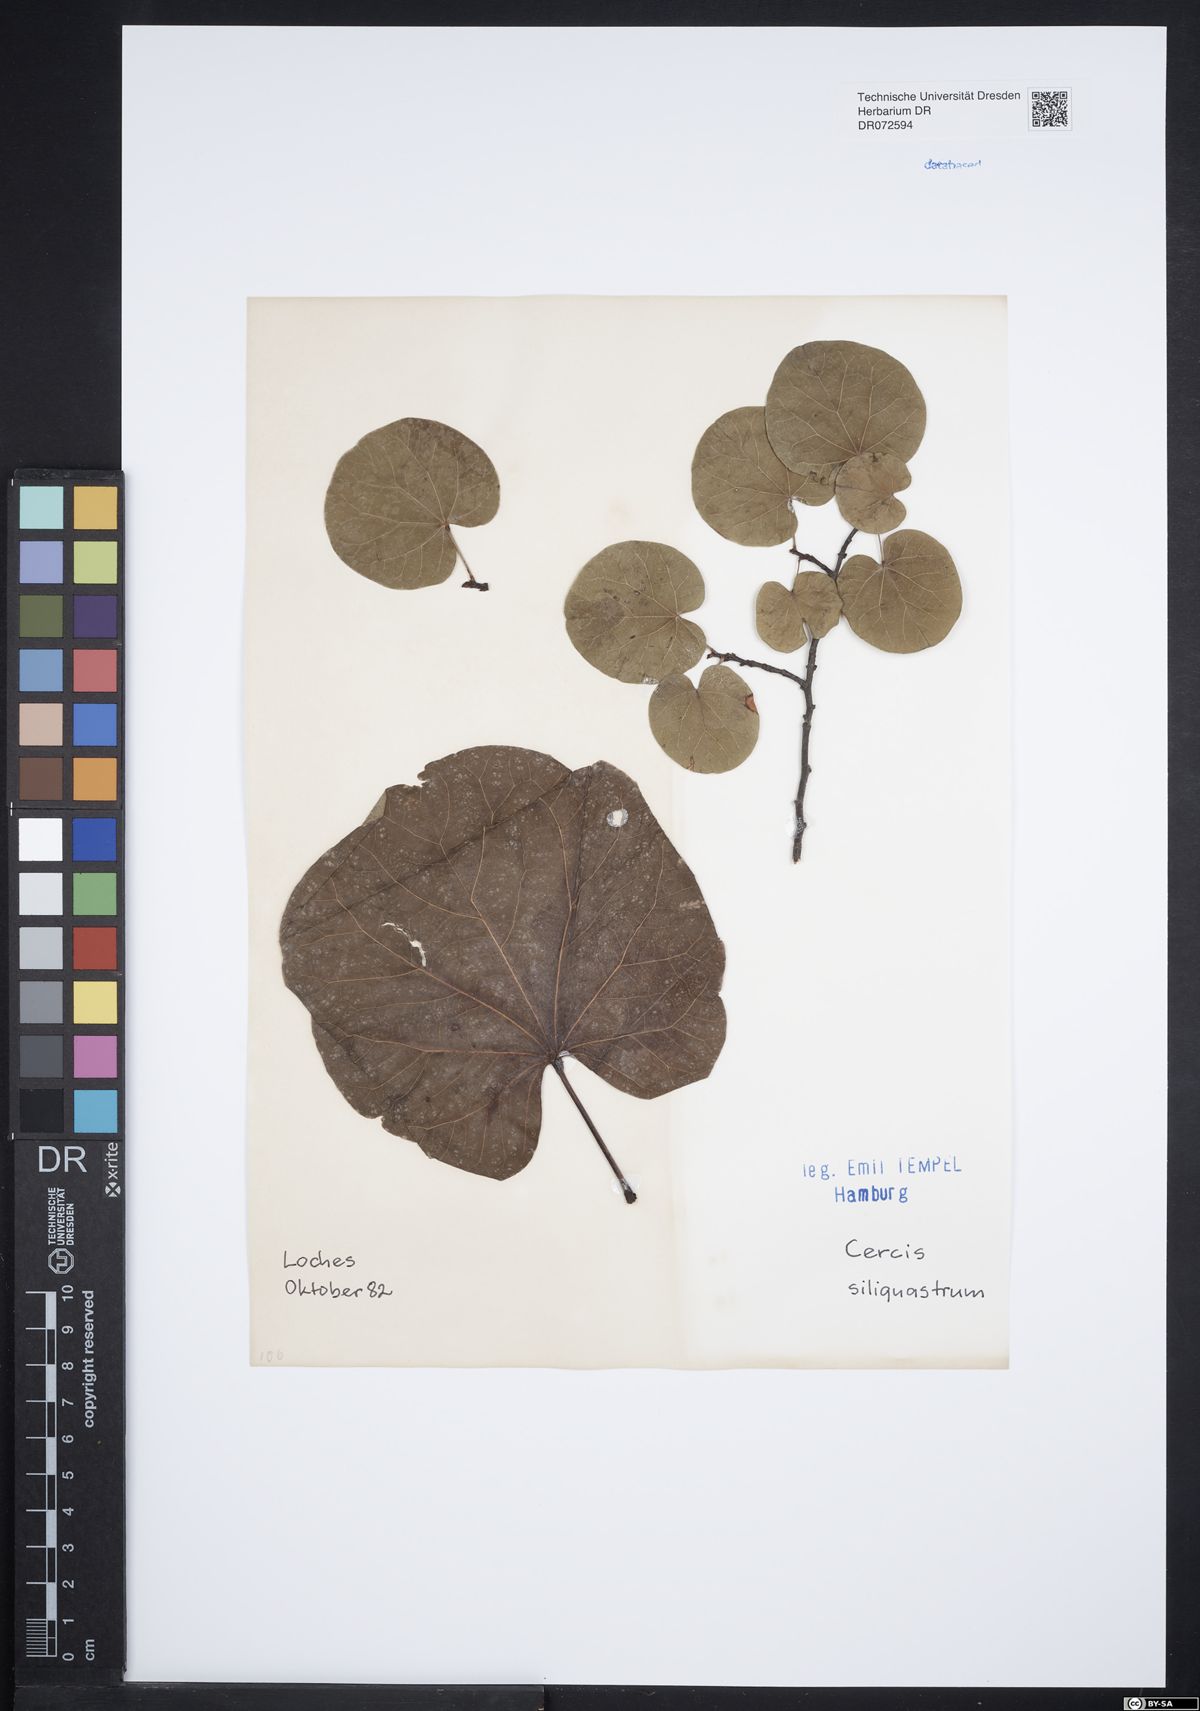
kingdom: Plantae
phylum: Tracheophyta
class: Magnoliopsida
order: Fabales
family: Fabaceae
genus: Cercis
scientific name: Cercis siliquastrum
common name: Judas tree
